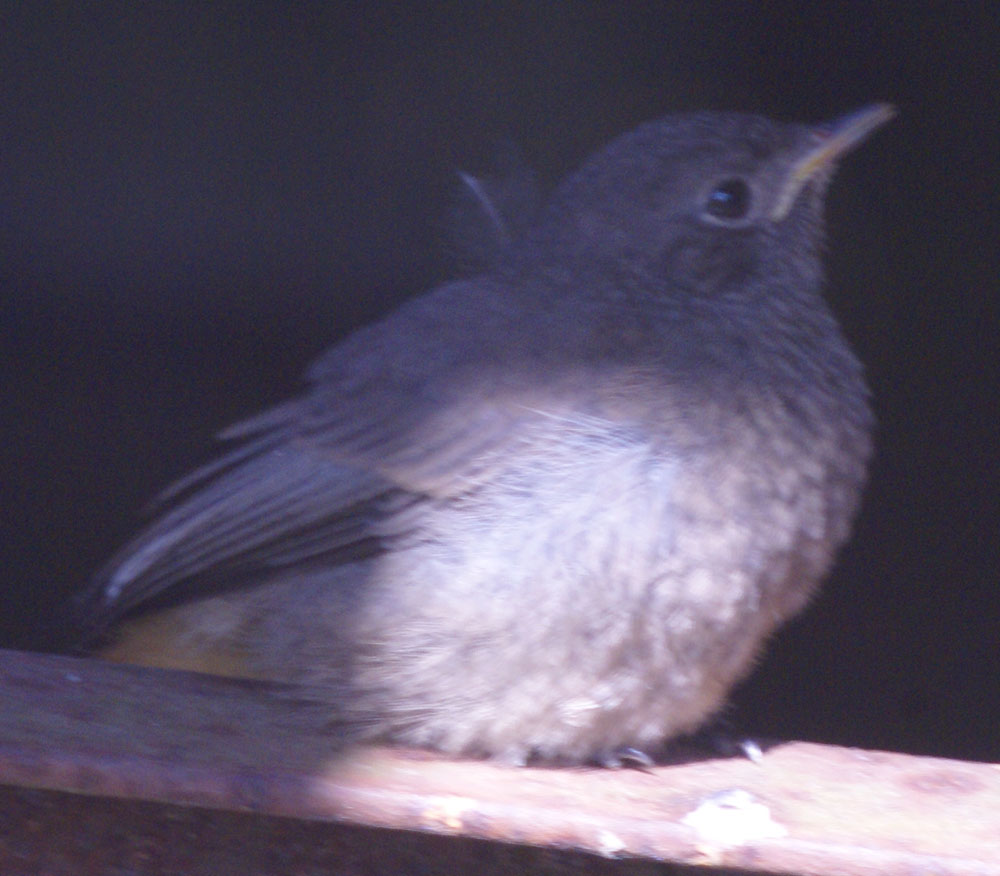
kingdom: Animalia
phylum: Chordata
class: Aves
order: Passeriformes
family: Muscicapidae
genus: Phoenicurus
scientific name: Phoenicurus phoenicurus
